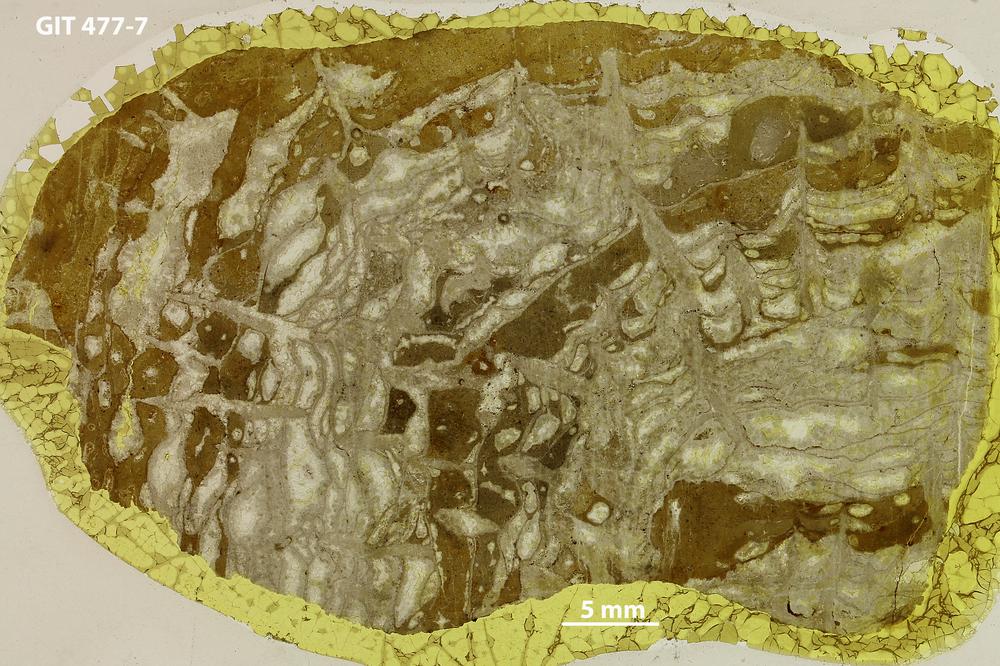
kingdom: Animalia
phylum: Porifera
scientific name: Porifera
